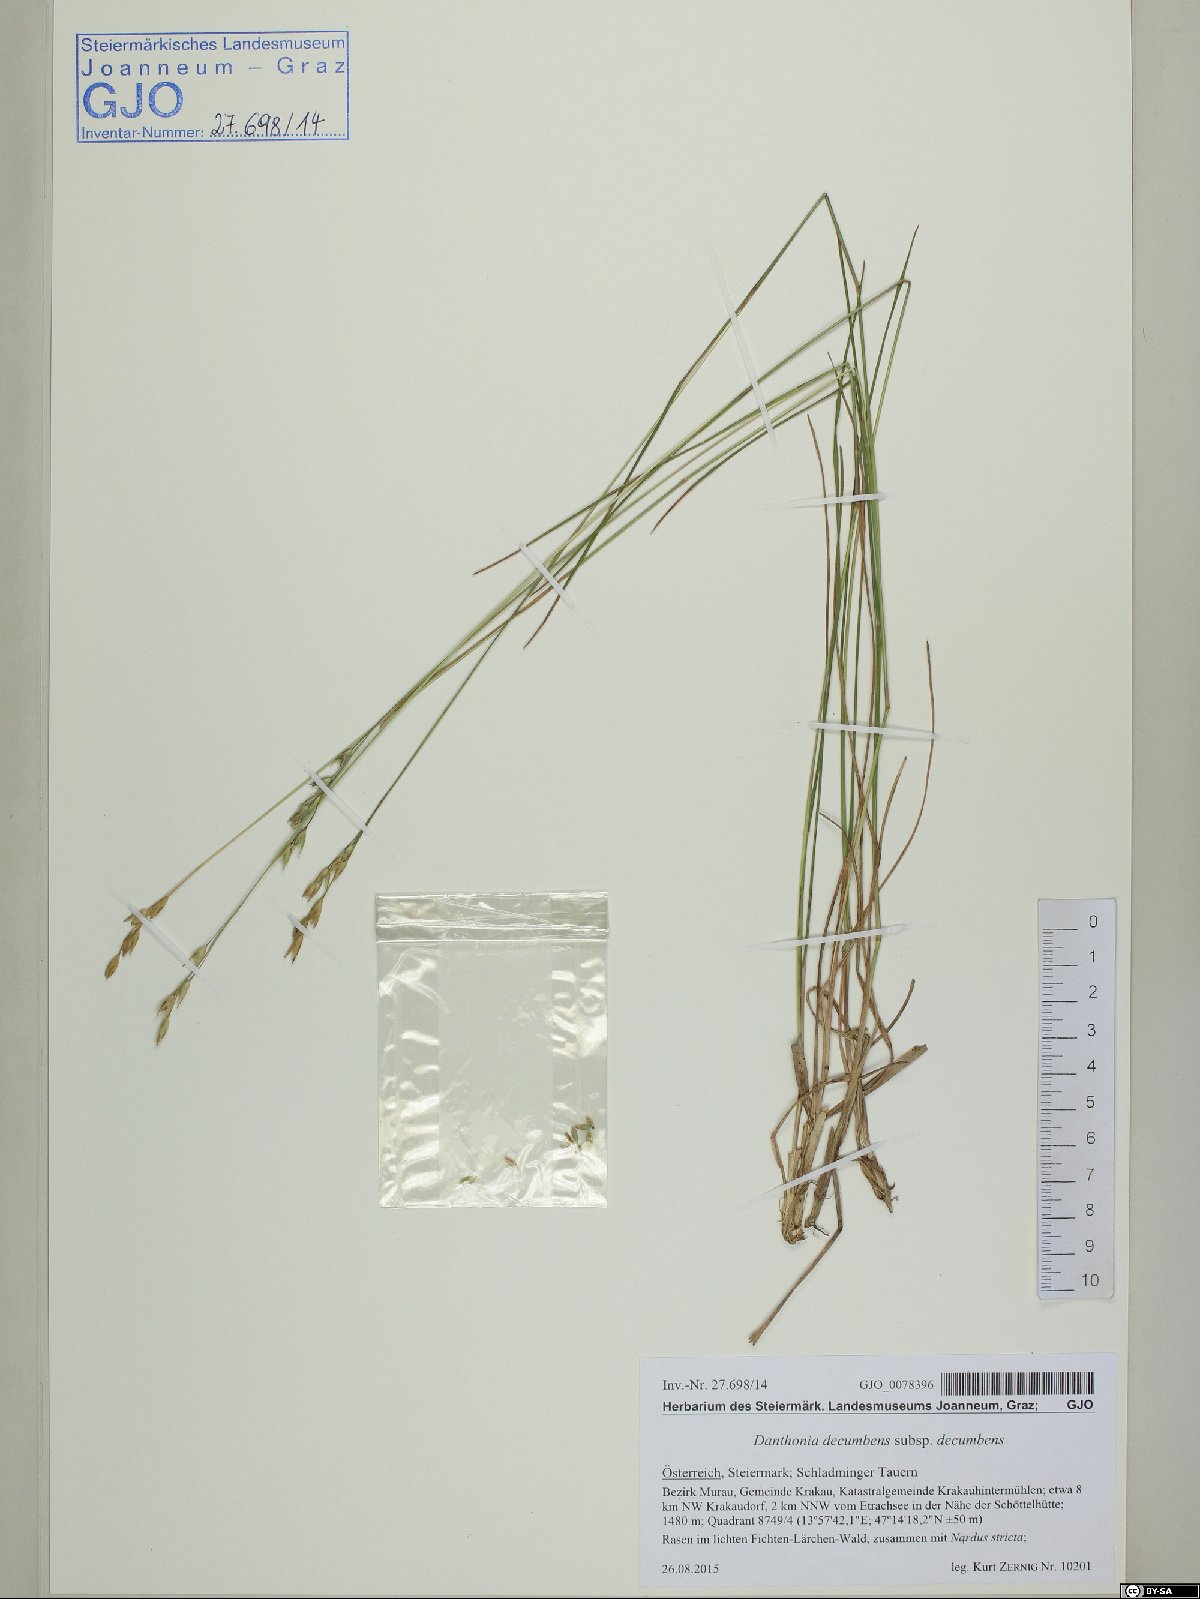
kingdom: Plantae
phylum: Tracheophyta
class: Liliopsida
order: Poales
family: Poaceae
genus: Danthonia
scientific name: Danthonia decumbens
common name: Common heathgrass
